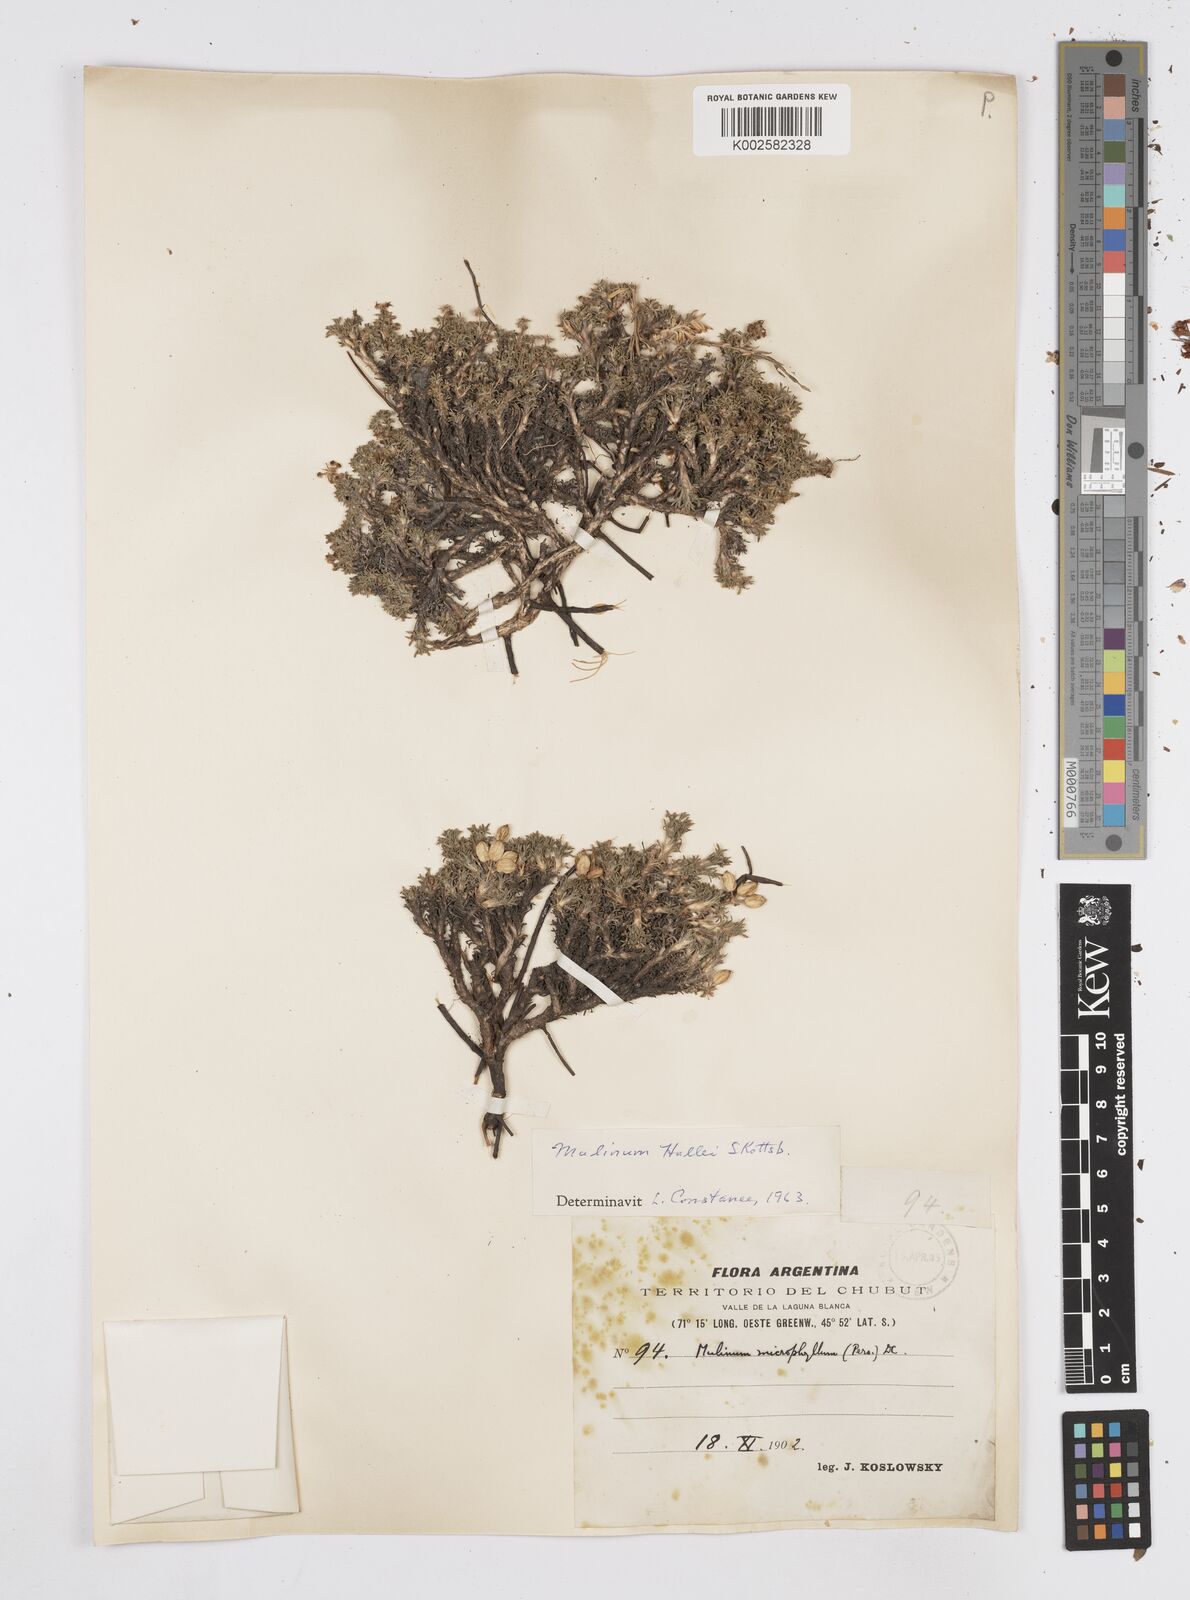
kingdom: Plantae
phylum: Tracheophyta
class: Magnoliopsida
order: Apiales
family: Apiaceae
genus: Azorella
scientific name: Azorella hallei
